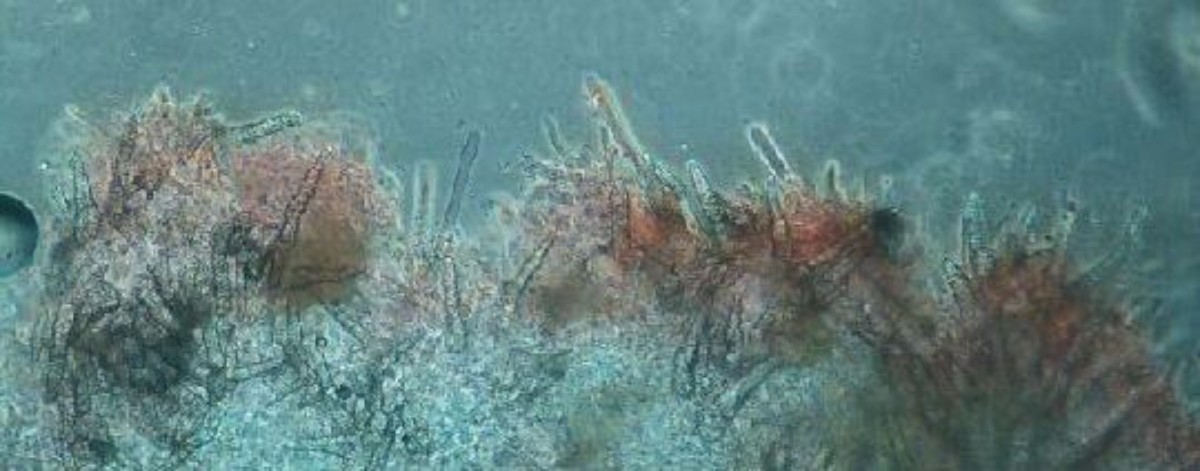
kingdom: Fungi
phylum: Basidiomycota
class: Agaricomycetes
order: Corticiales
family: Corticiaceae
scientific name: Corticiaceae
